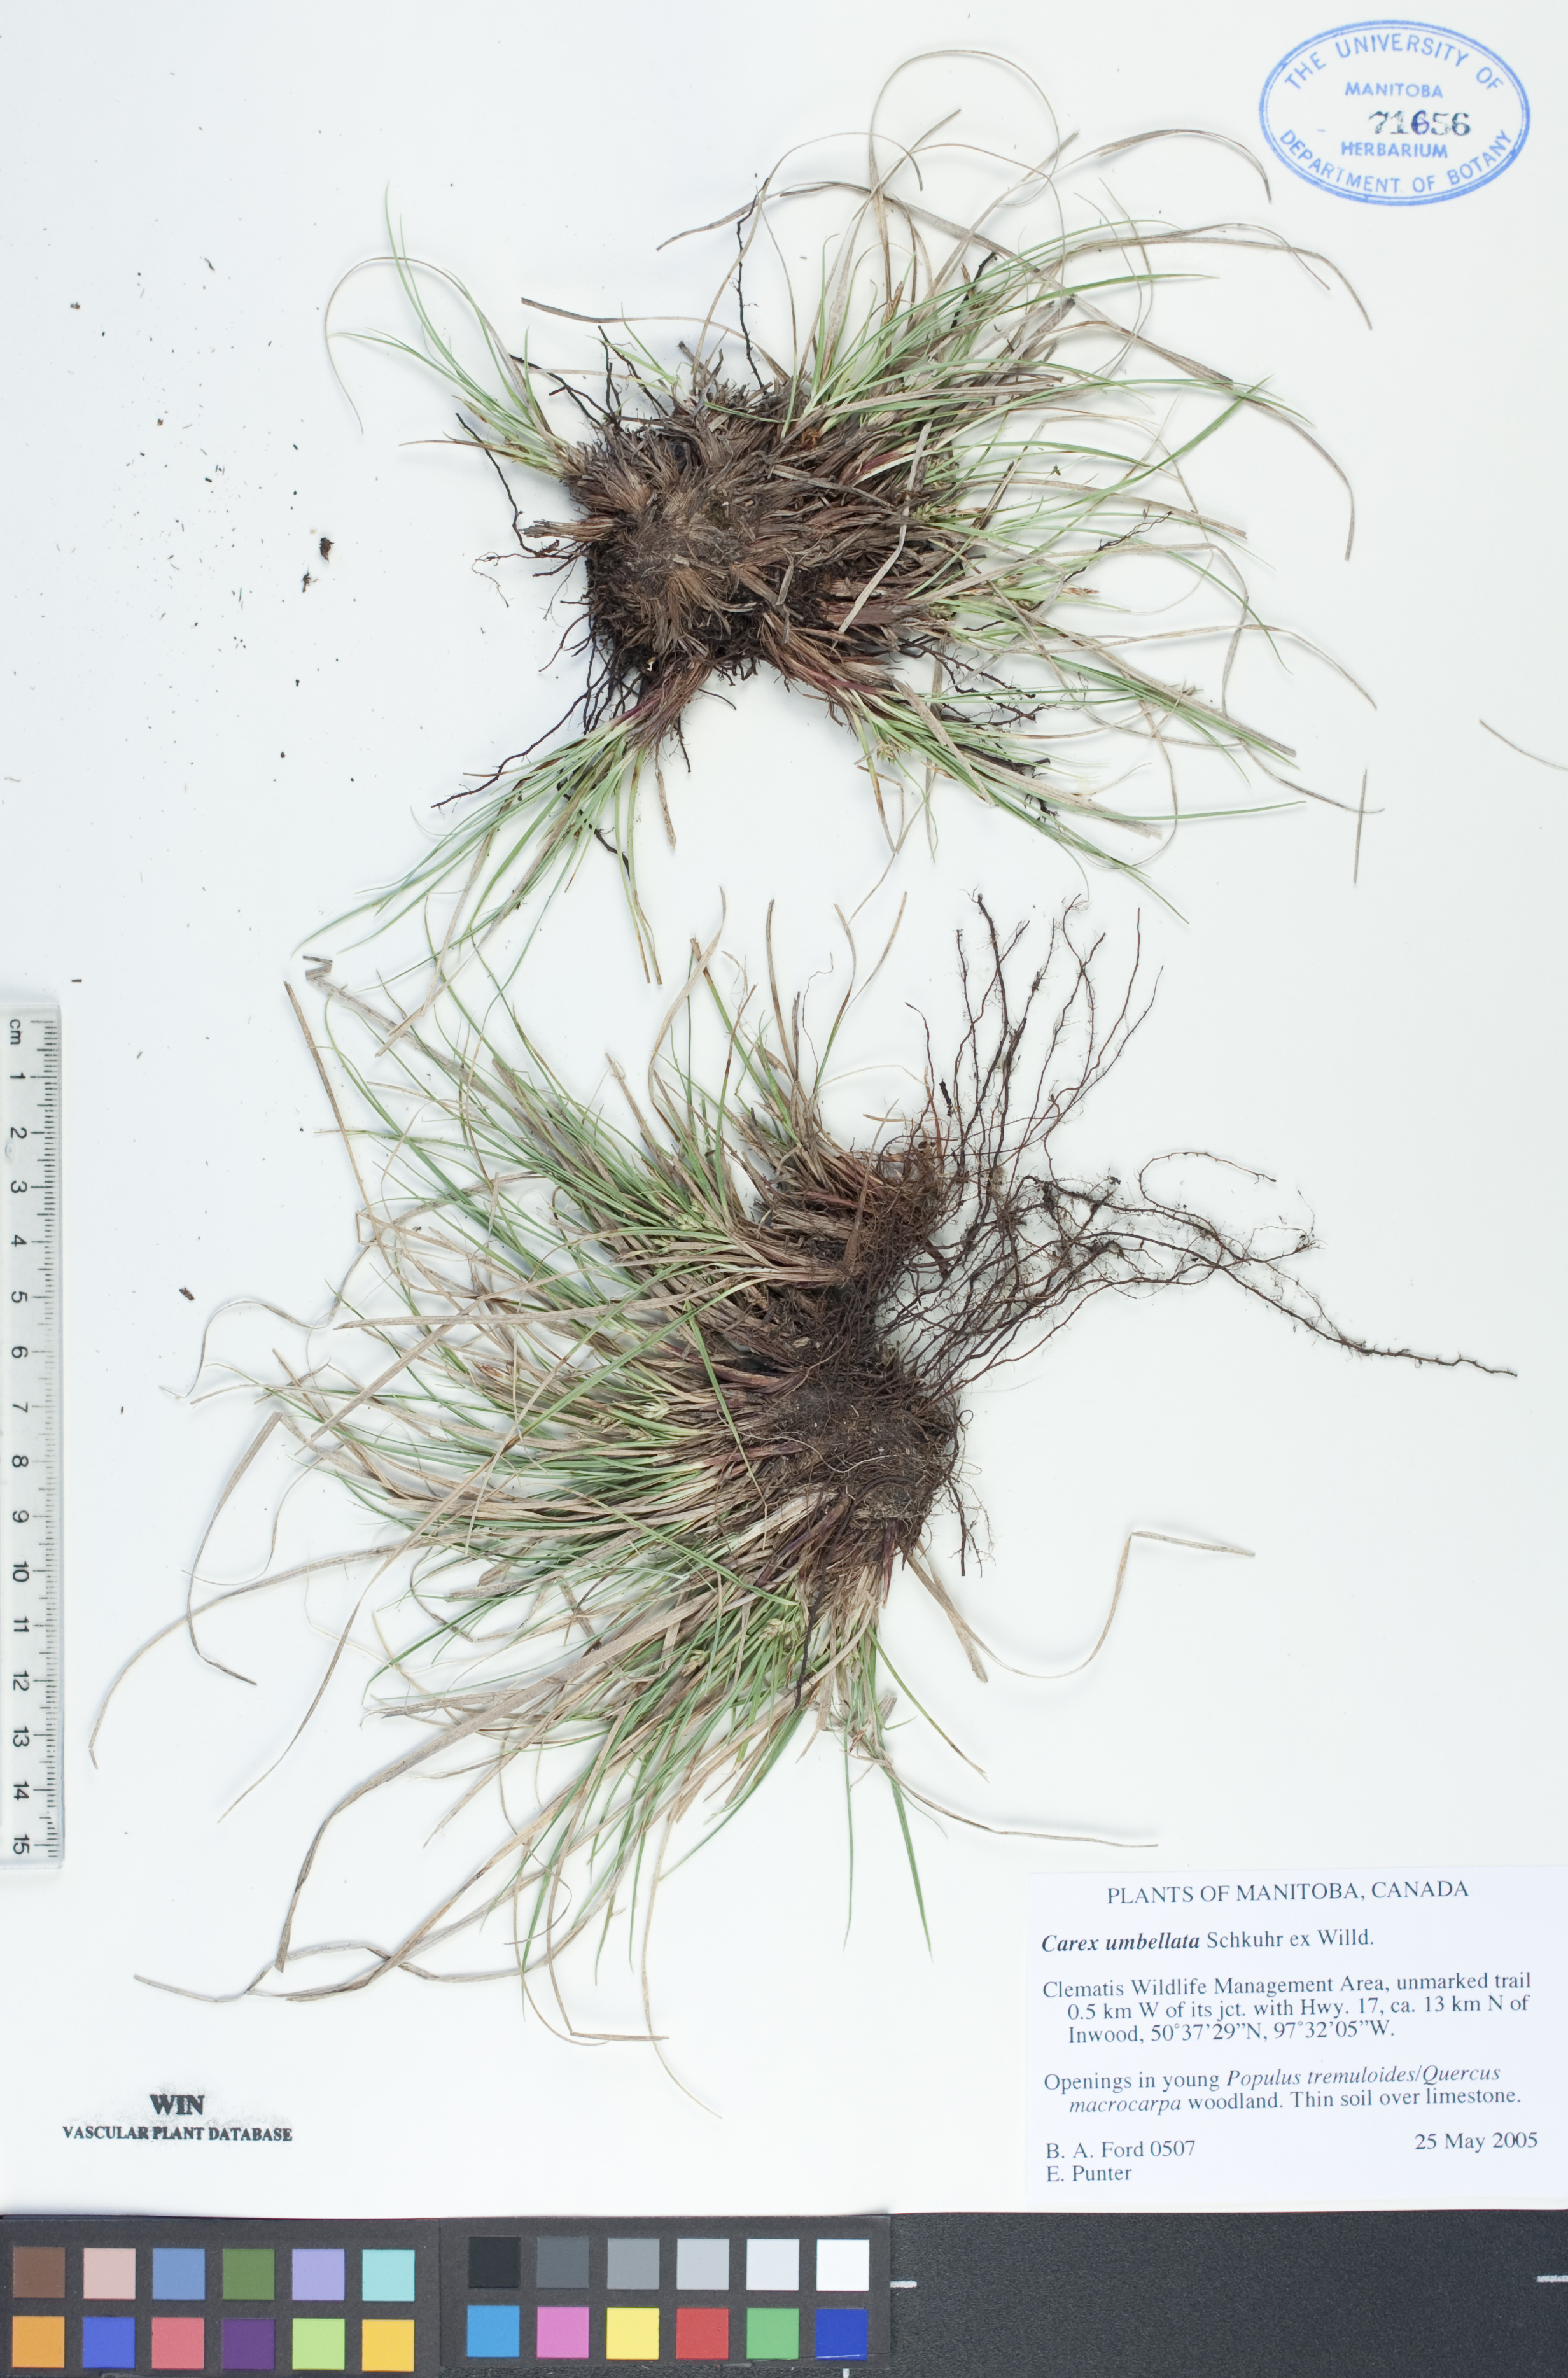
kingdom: Plantae
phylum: Tracheophyta
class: Liliopsida
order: Poales
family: Cyperaceae
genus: Carex
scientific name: Carex umbellata
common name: Early oak sedge
